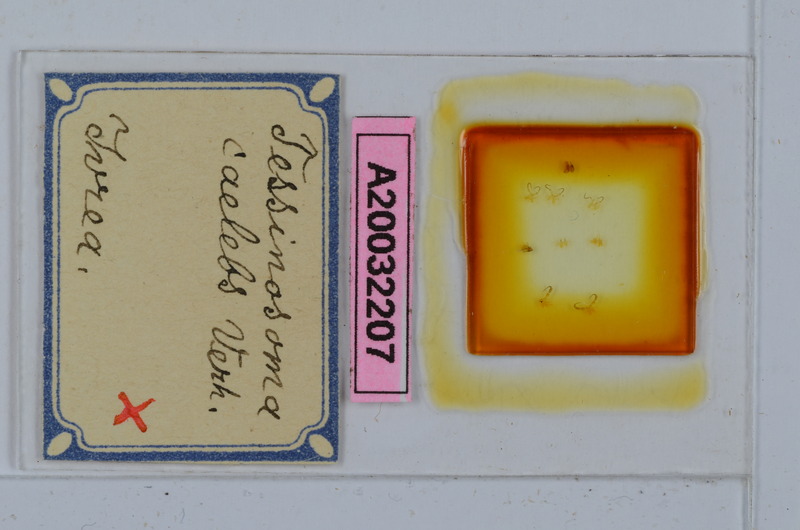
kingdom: Animalia
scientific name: Animalia
